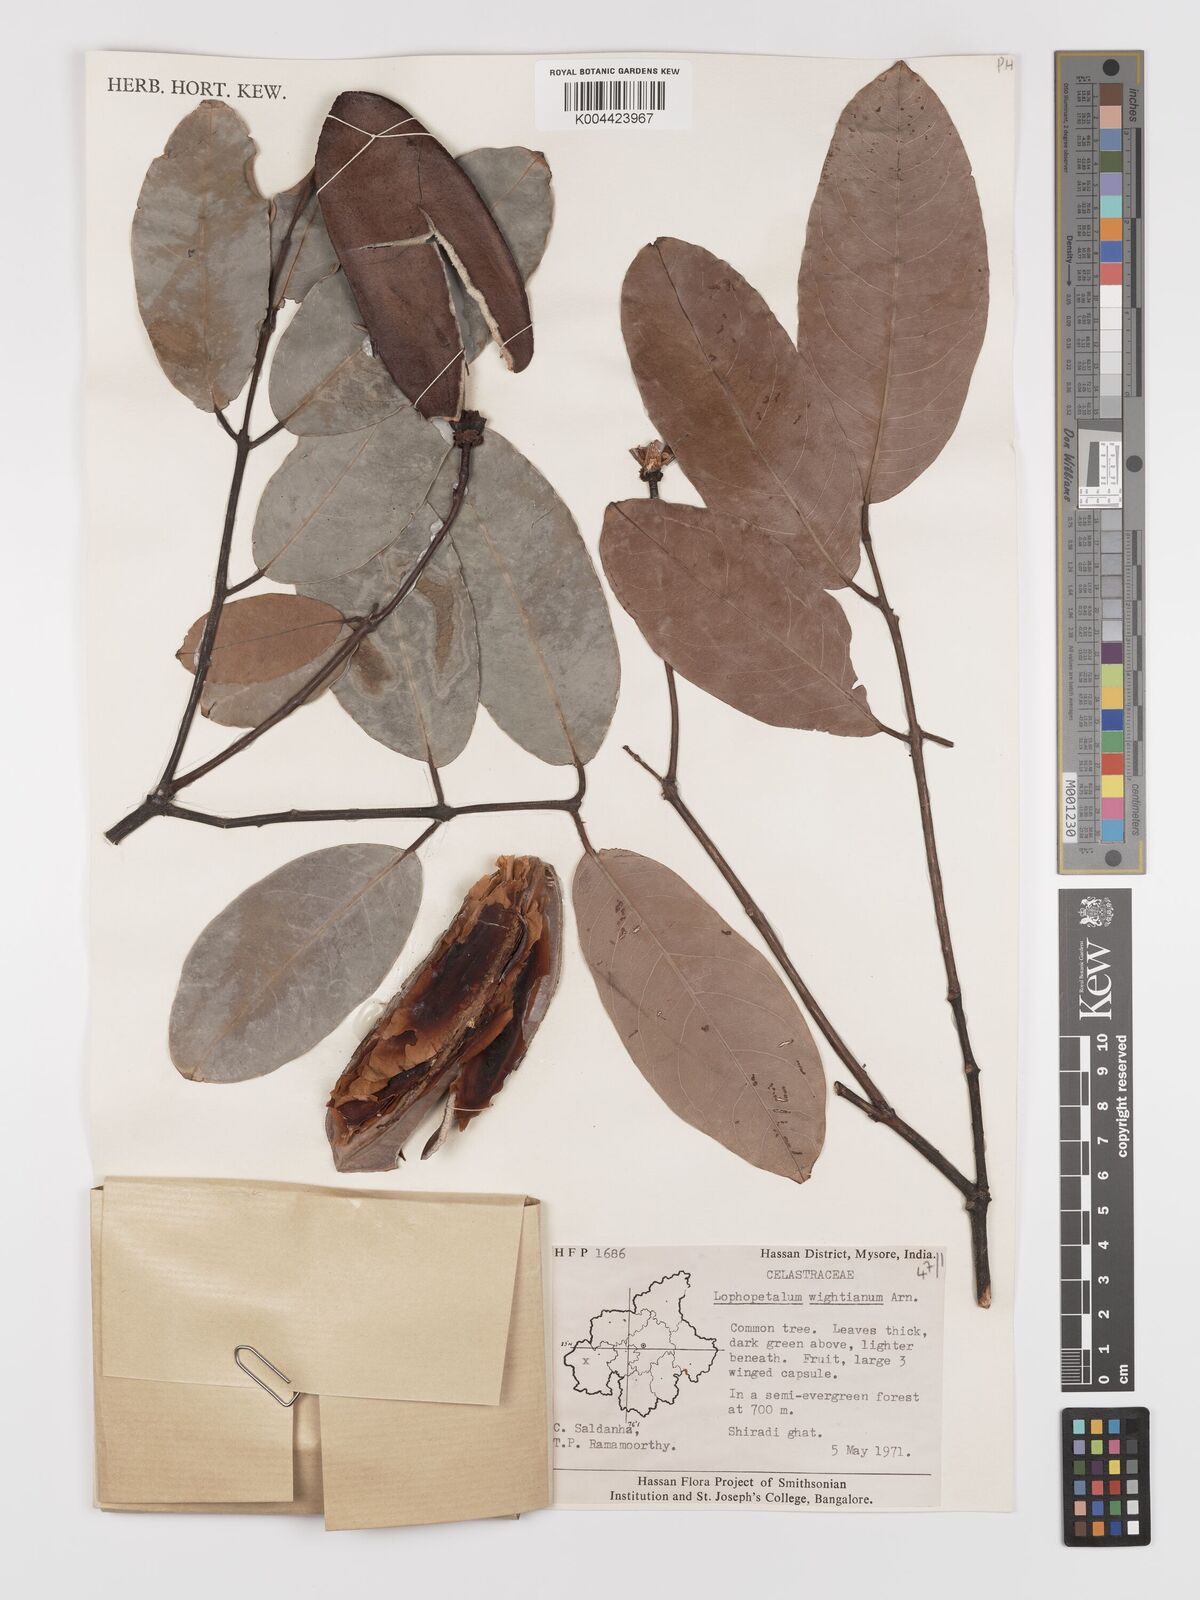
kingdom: Plantae
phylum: Tracheophyta
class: Magnoliopsida
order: Celastrales
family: Celastraceae
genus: Lophopetalum
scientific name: Lophopetalum wightianum
